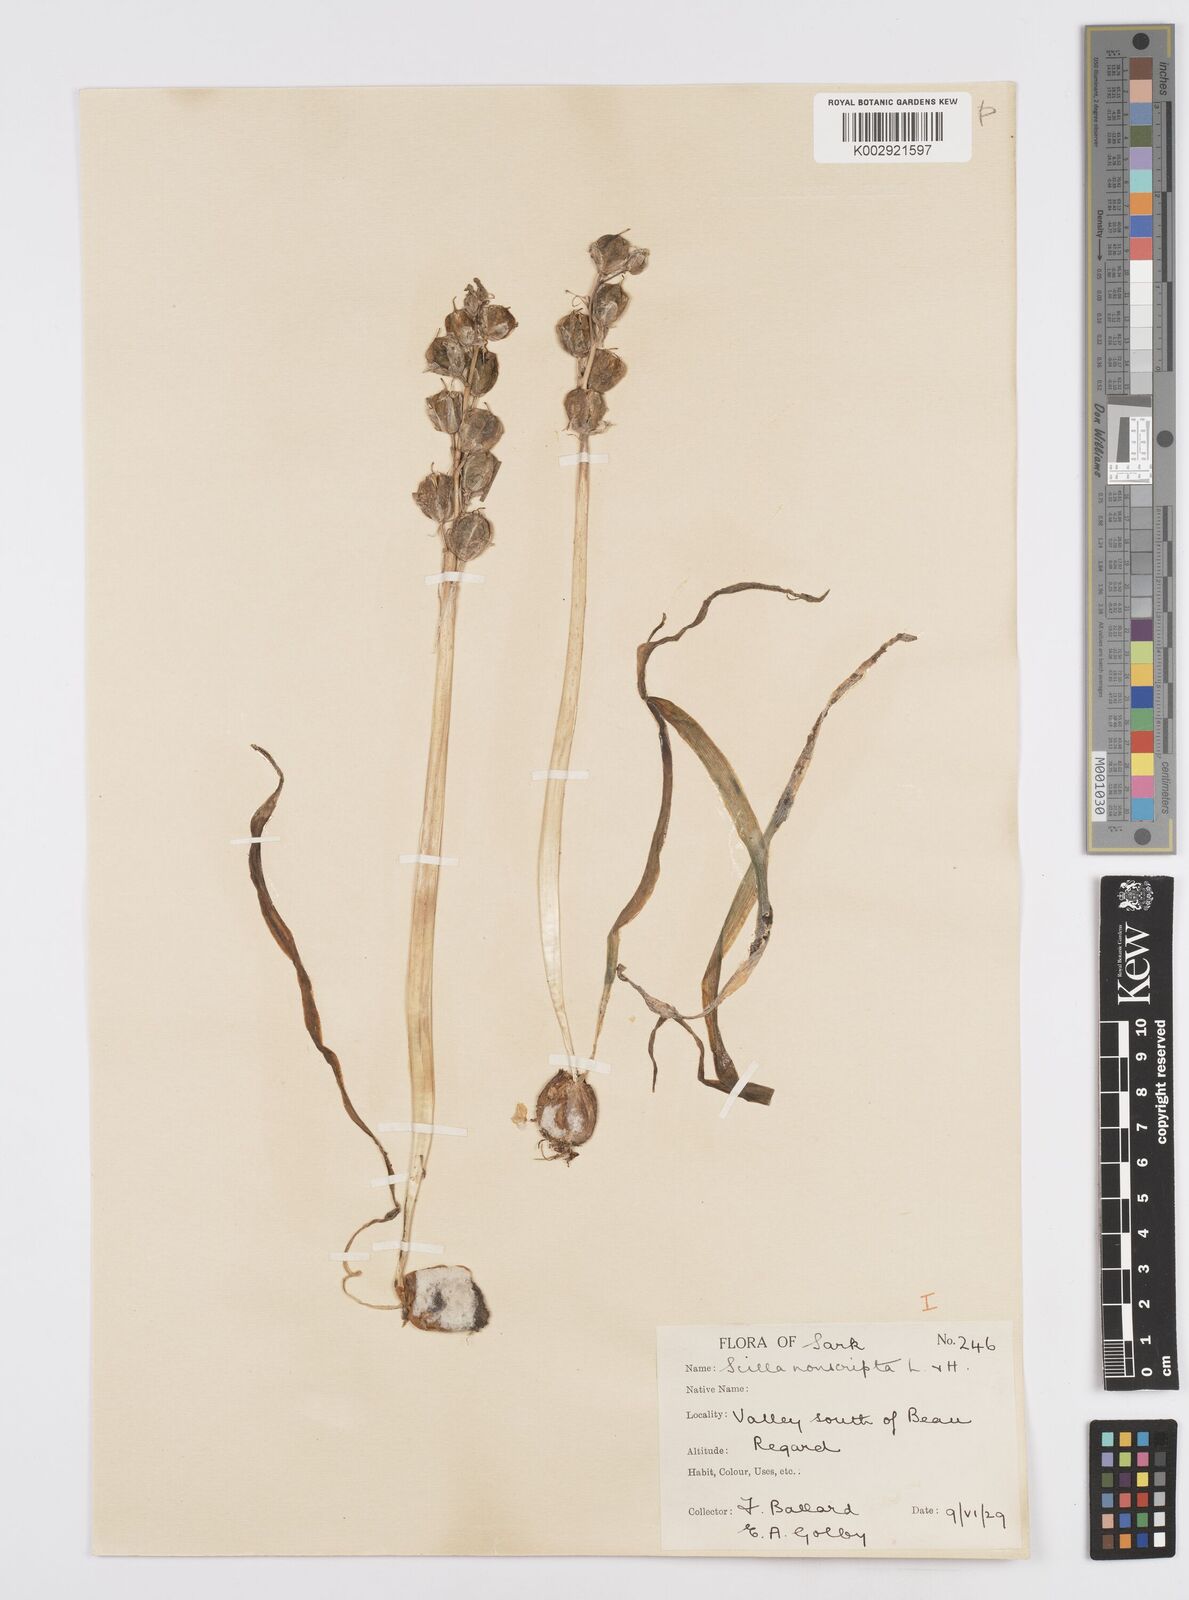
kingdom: Plantae
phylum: Tracheophyta
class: Liliopsida
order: Asparagales
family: Asparagaceae
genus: Hyacinthoides
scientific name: Hyacinthoides non-scripta
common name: Bluebell
